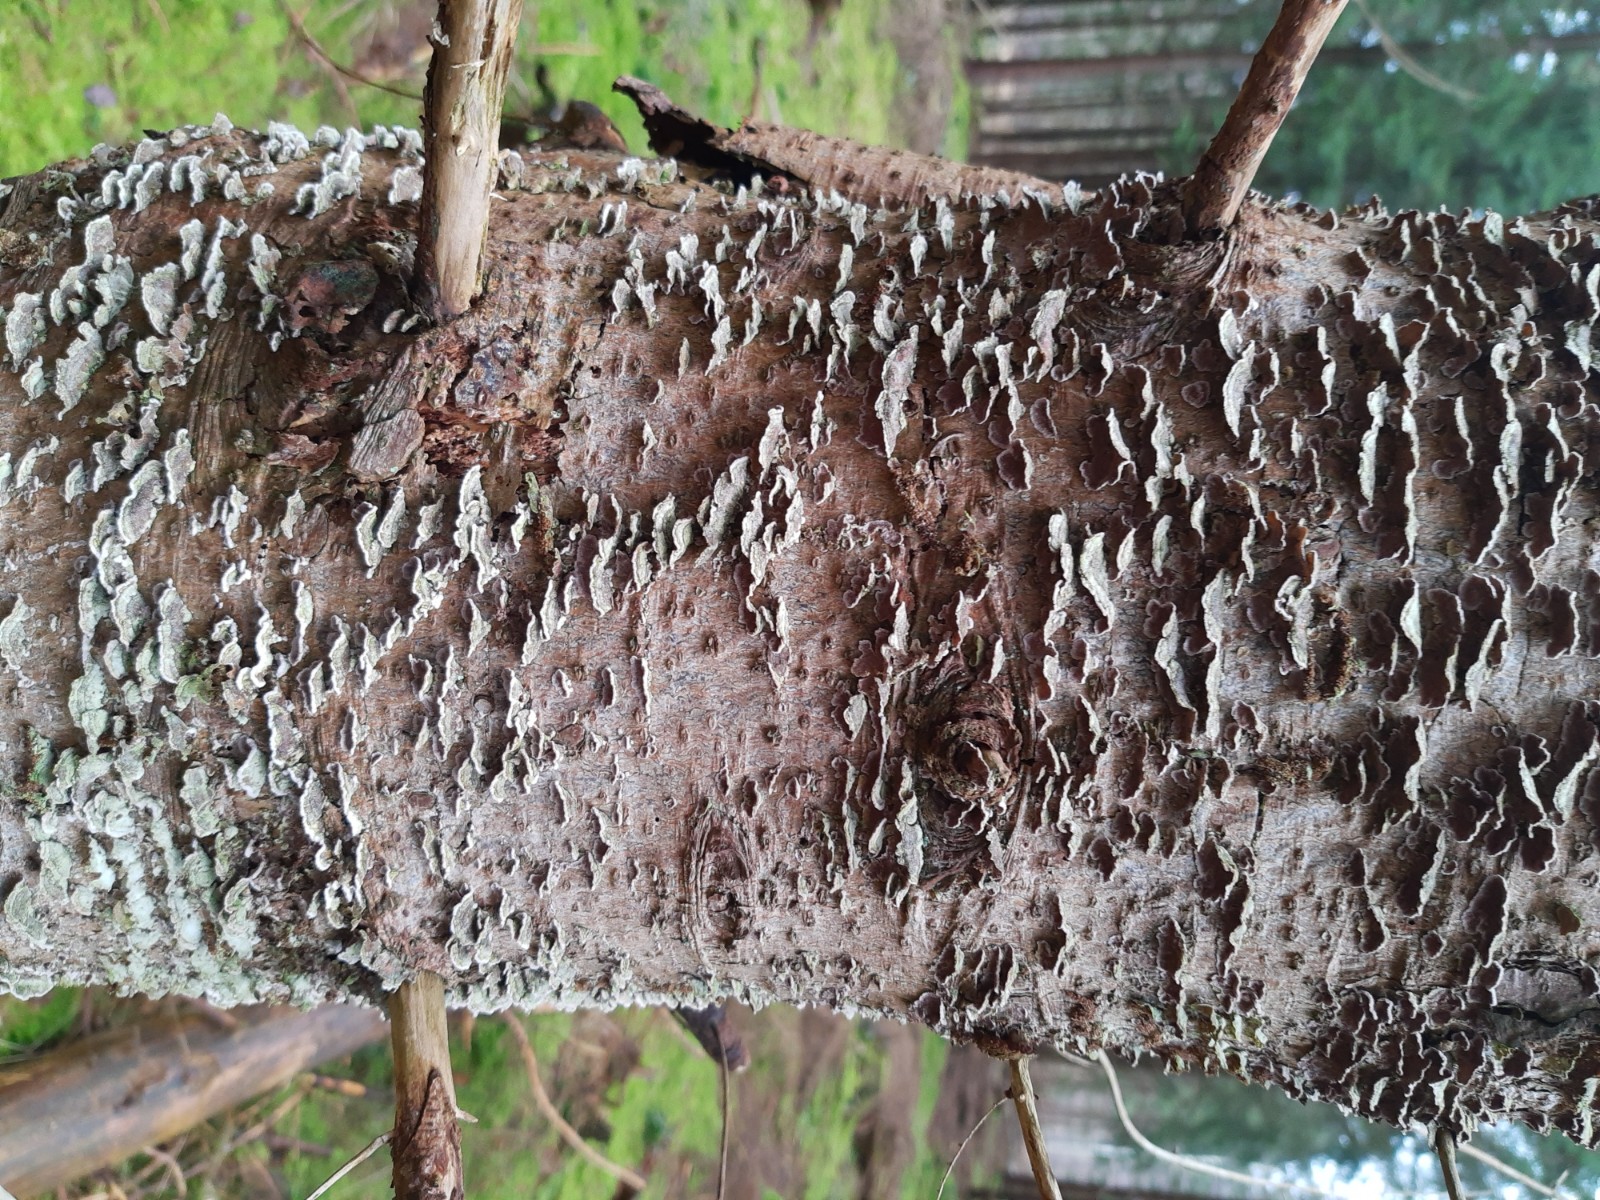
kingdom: Fungi
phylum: Basidiomycota
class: Agaricomycetes
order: Hymenochaetales
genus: Trichaptum
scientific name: Trichaptum abietinum
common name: almindelig violporesvamp
